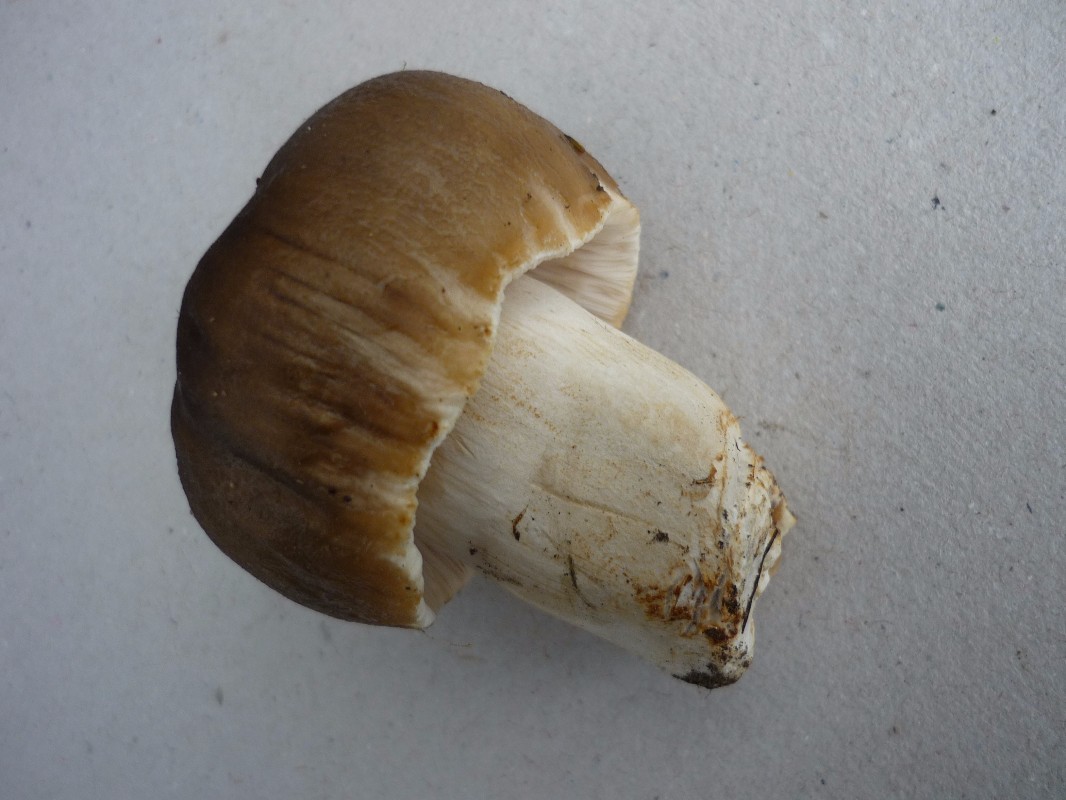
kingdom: Fungi
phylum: Basidiomycota
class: Agaricomycetes
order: Russulales
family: Russulaceae
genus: Russula
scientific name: Russula amoenolens
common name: skarp kam-skørhat
